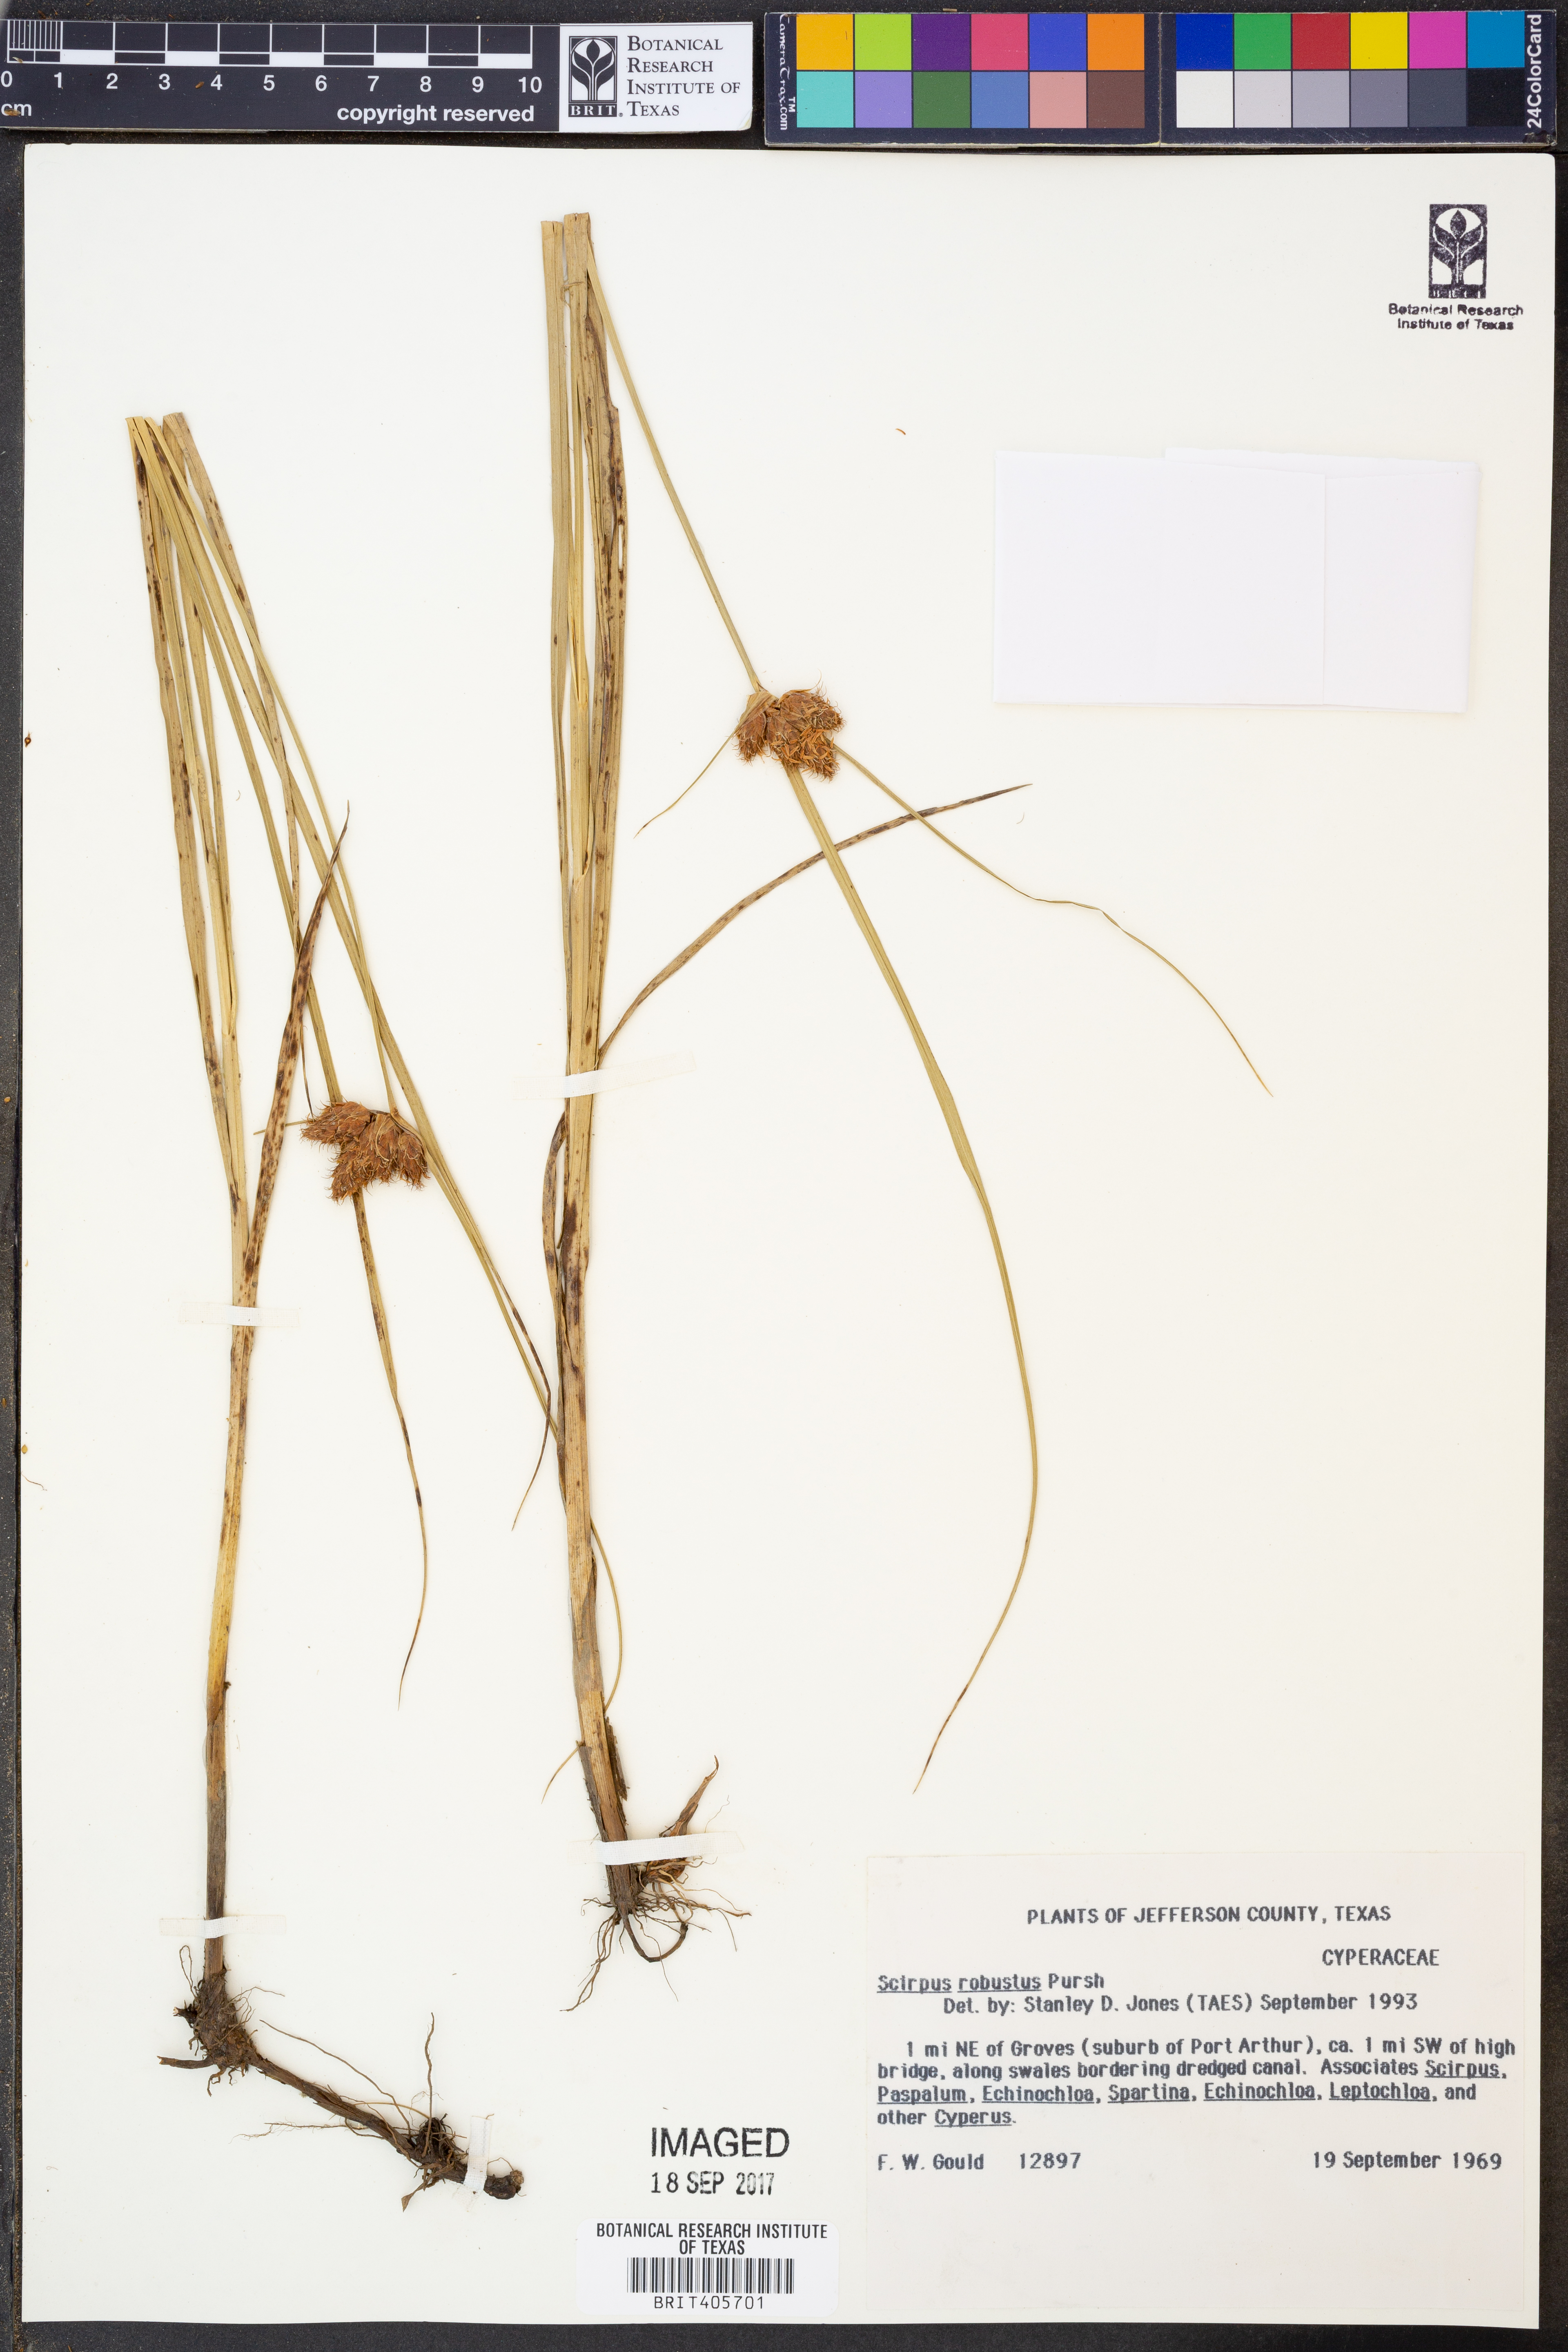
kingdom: Plantae
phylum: Tracheophyta
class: Liliopsida
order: Poales
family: Cyperaceae
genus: Bolboschoenus
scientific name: Bolboschoenus robustus
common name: Seacoast bulrush
